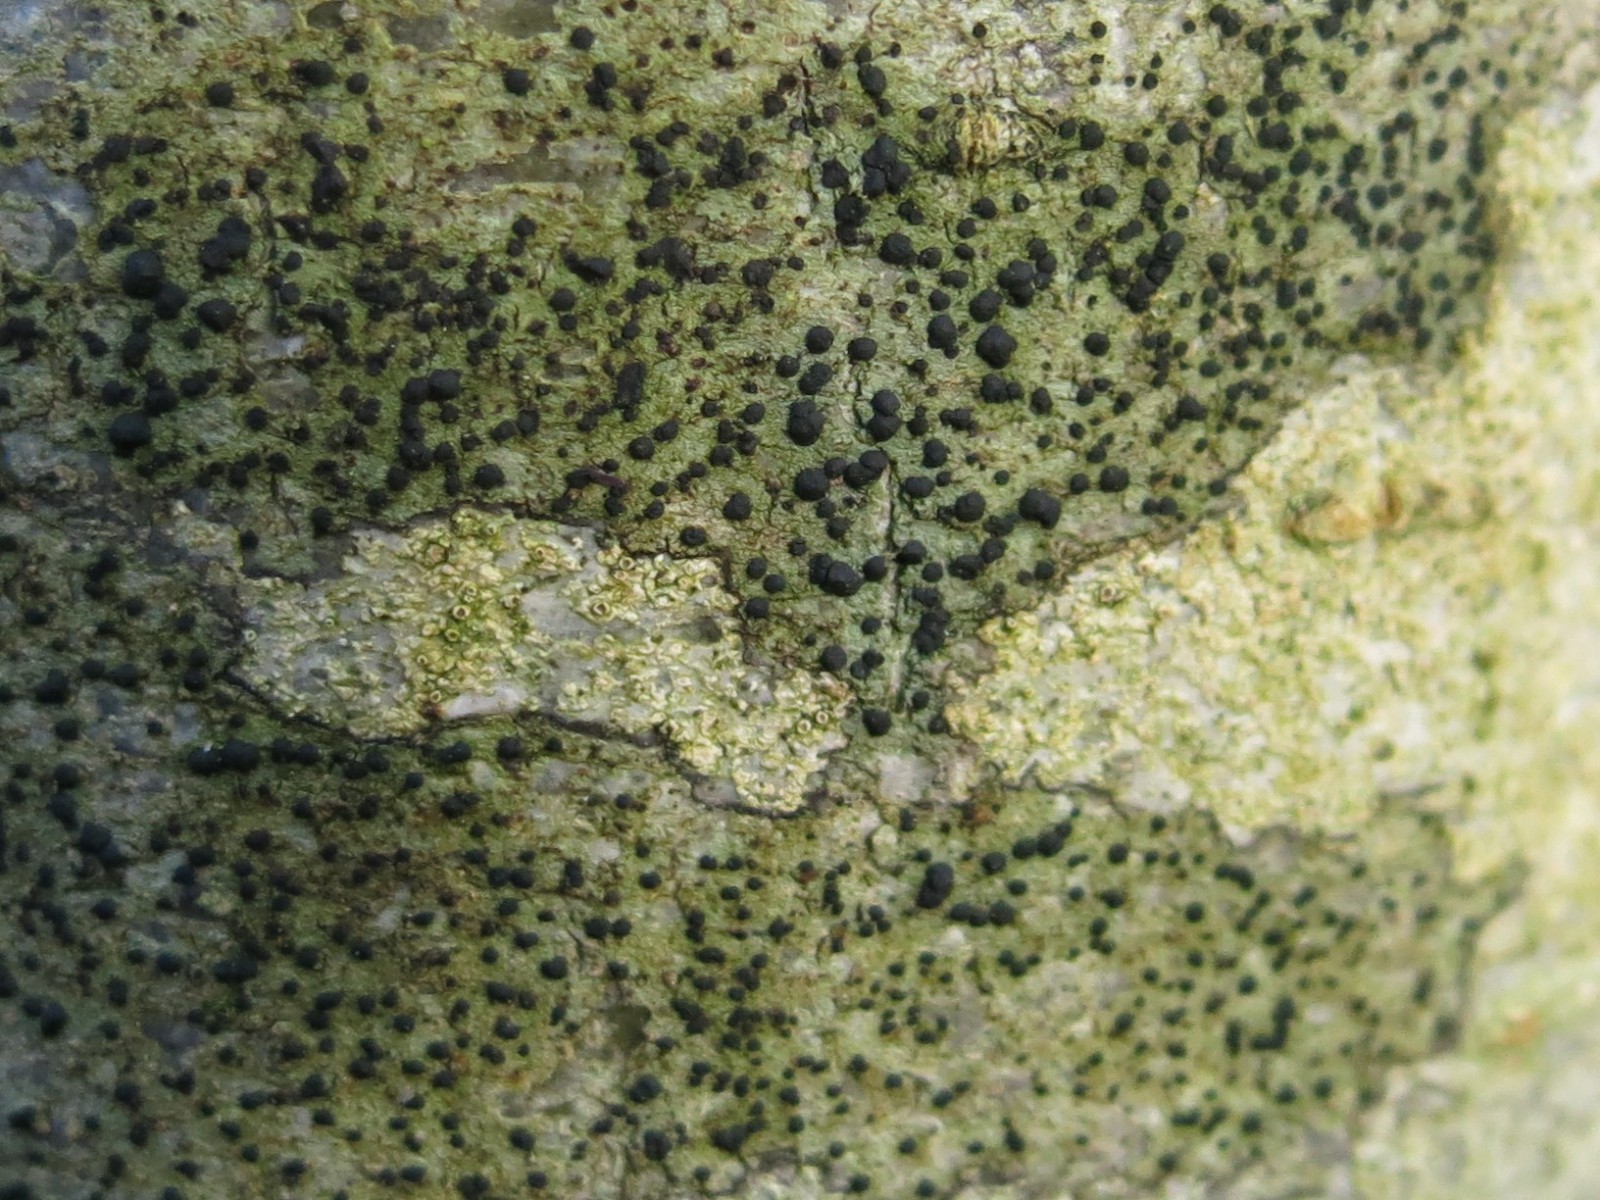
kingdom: Fungi
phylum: Ascomycota
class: Lecanoromycetes
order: Lecanorales
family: Lecanoraceae
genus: Lecidella
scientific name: Lecidella elaeochroma
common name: grågrøn skivelav
